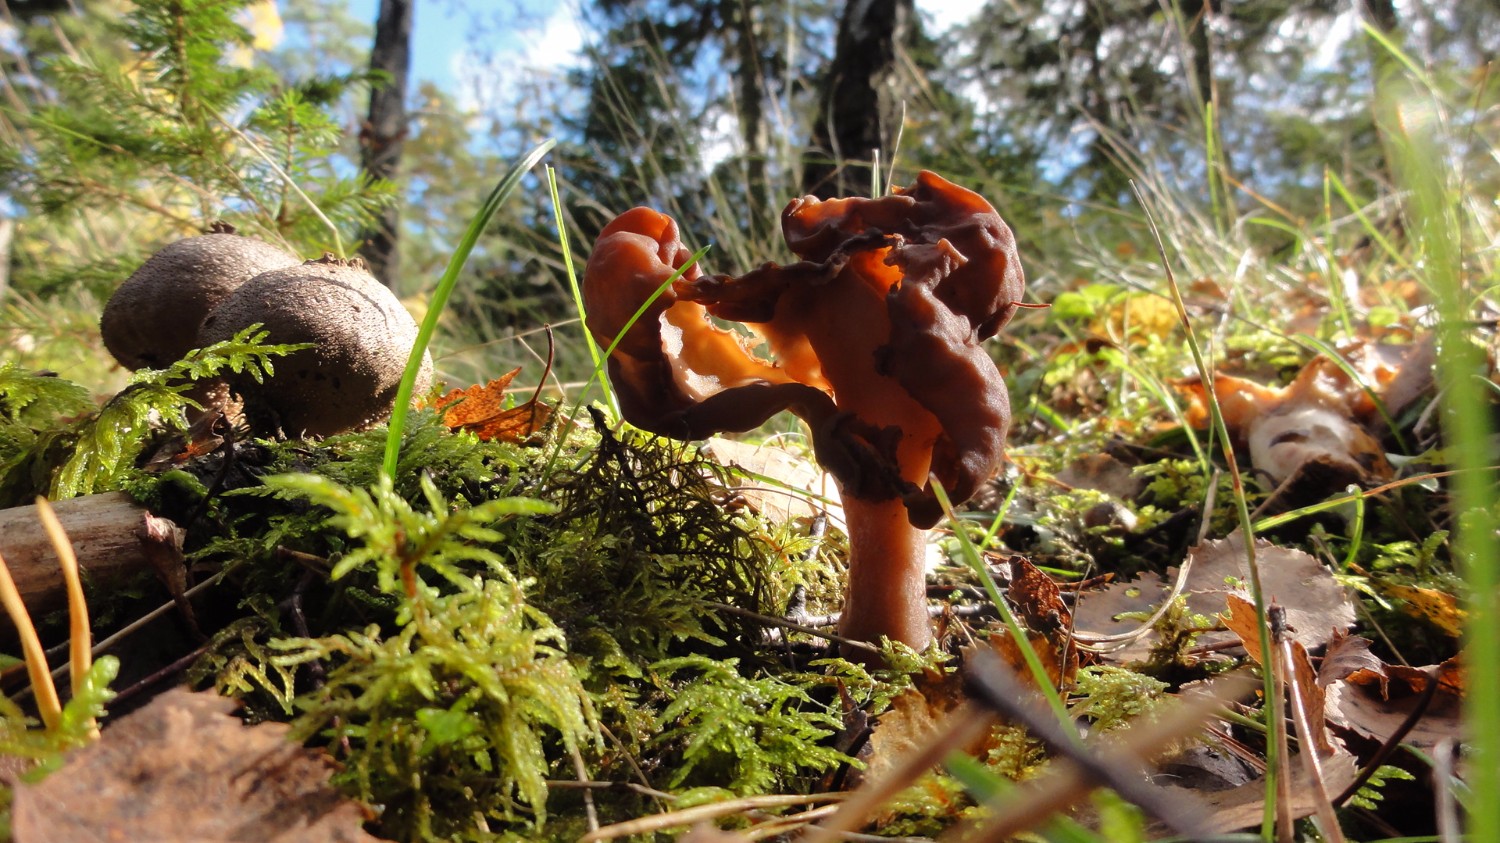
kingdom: Fungi
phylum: Ascomycota
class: Pezizomycetes
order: Pezizales
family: Discinaceae
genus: Gyromitra
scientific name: Gyromitra infula
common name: bispehue-stenmorkel
